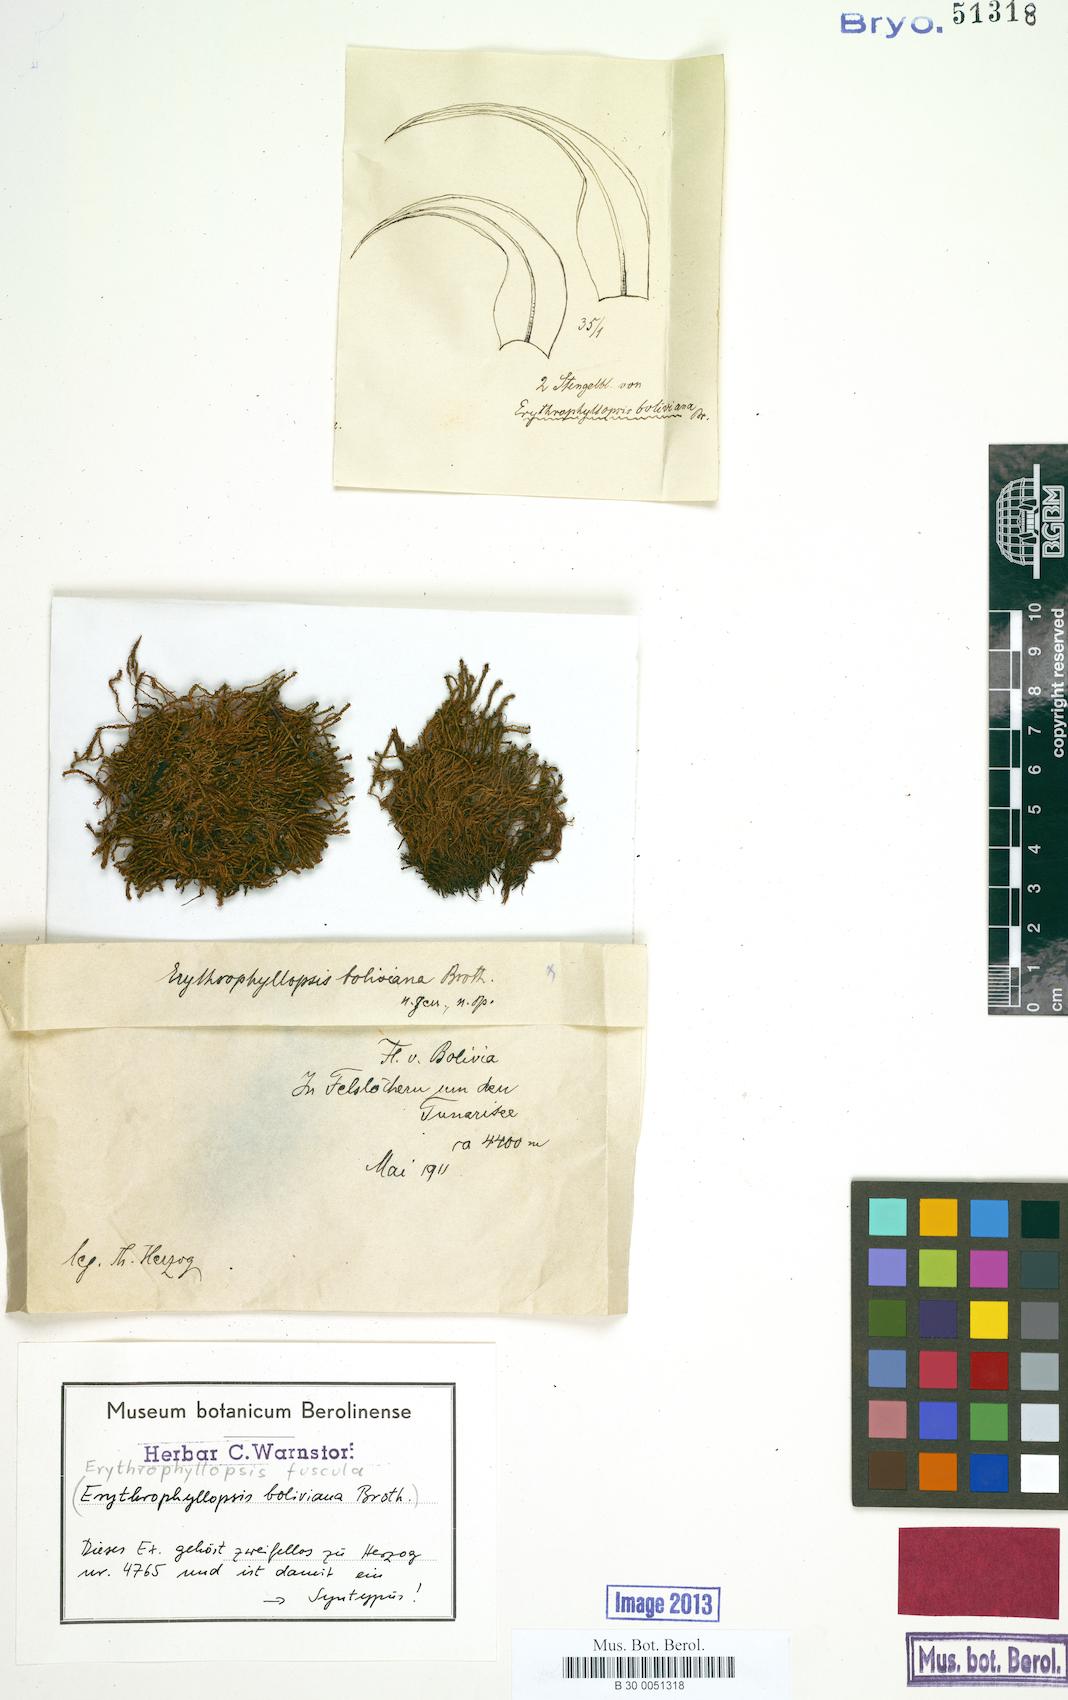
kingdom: Plantae
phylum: Bryophyta
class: Bryopsida
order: Pottiales
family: Pottiaceae
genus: Erythrophyllopsis
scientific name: Erythrophyllopsis andina
